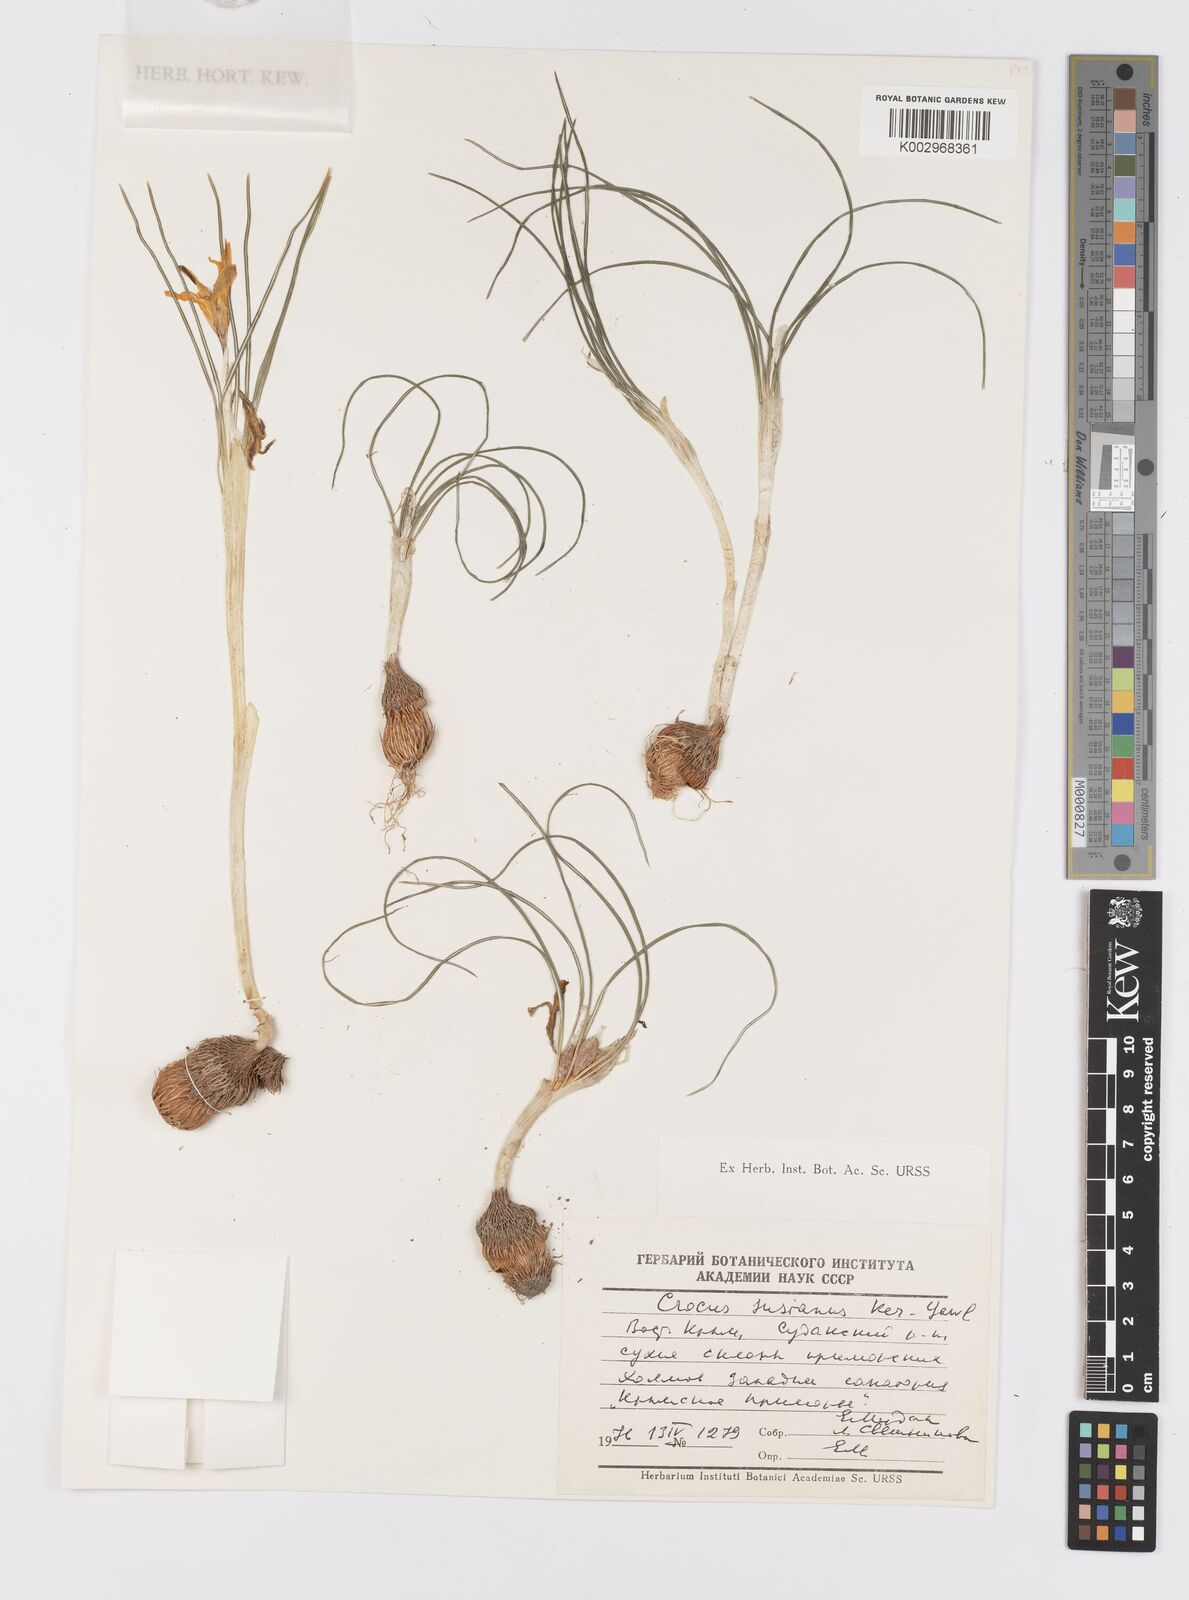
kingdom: Plantae
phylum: Tracheophyta
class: Liliopsida
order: Asparagales
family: Iridaceae
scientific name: Iridaceae
